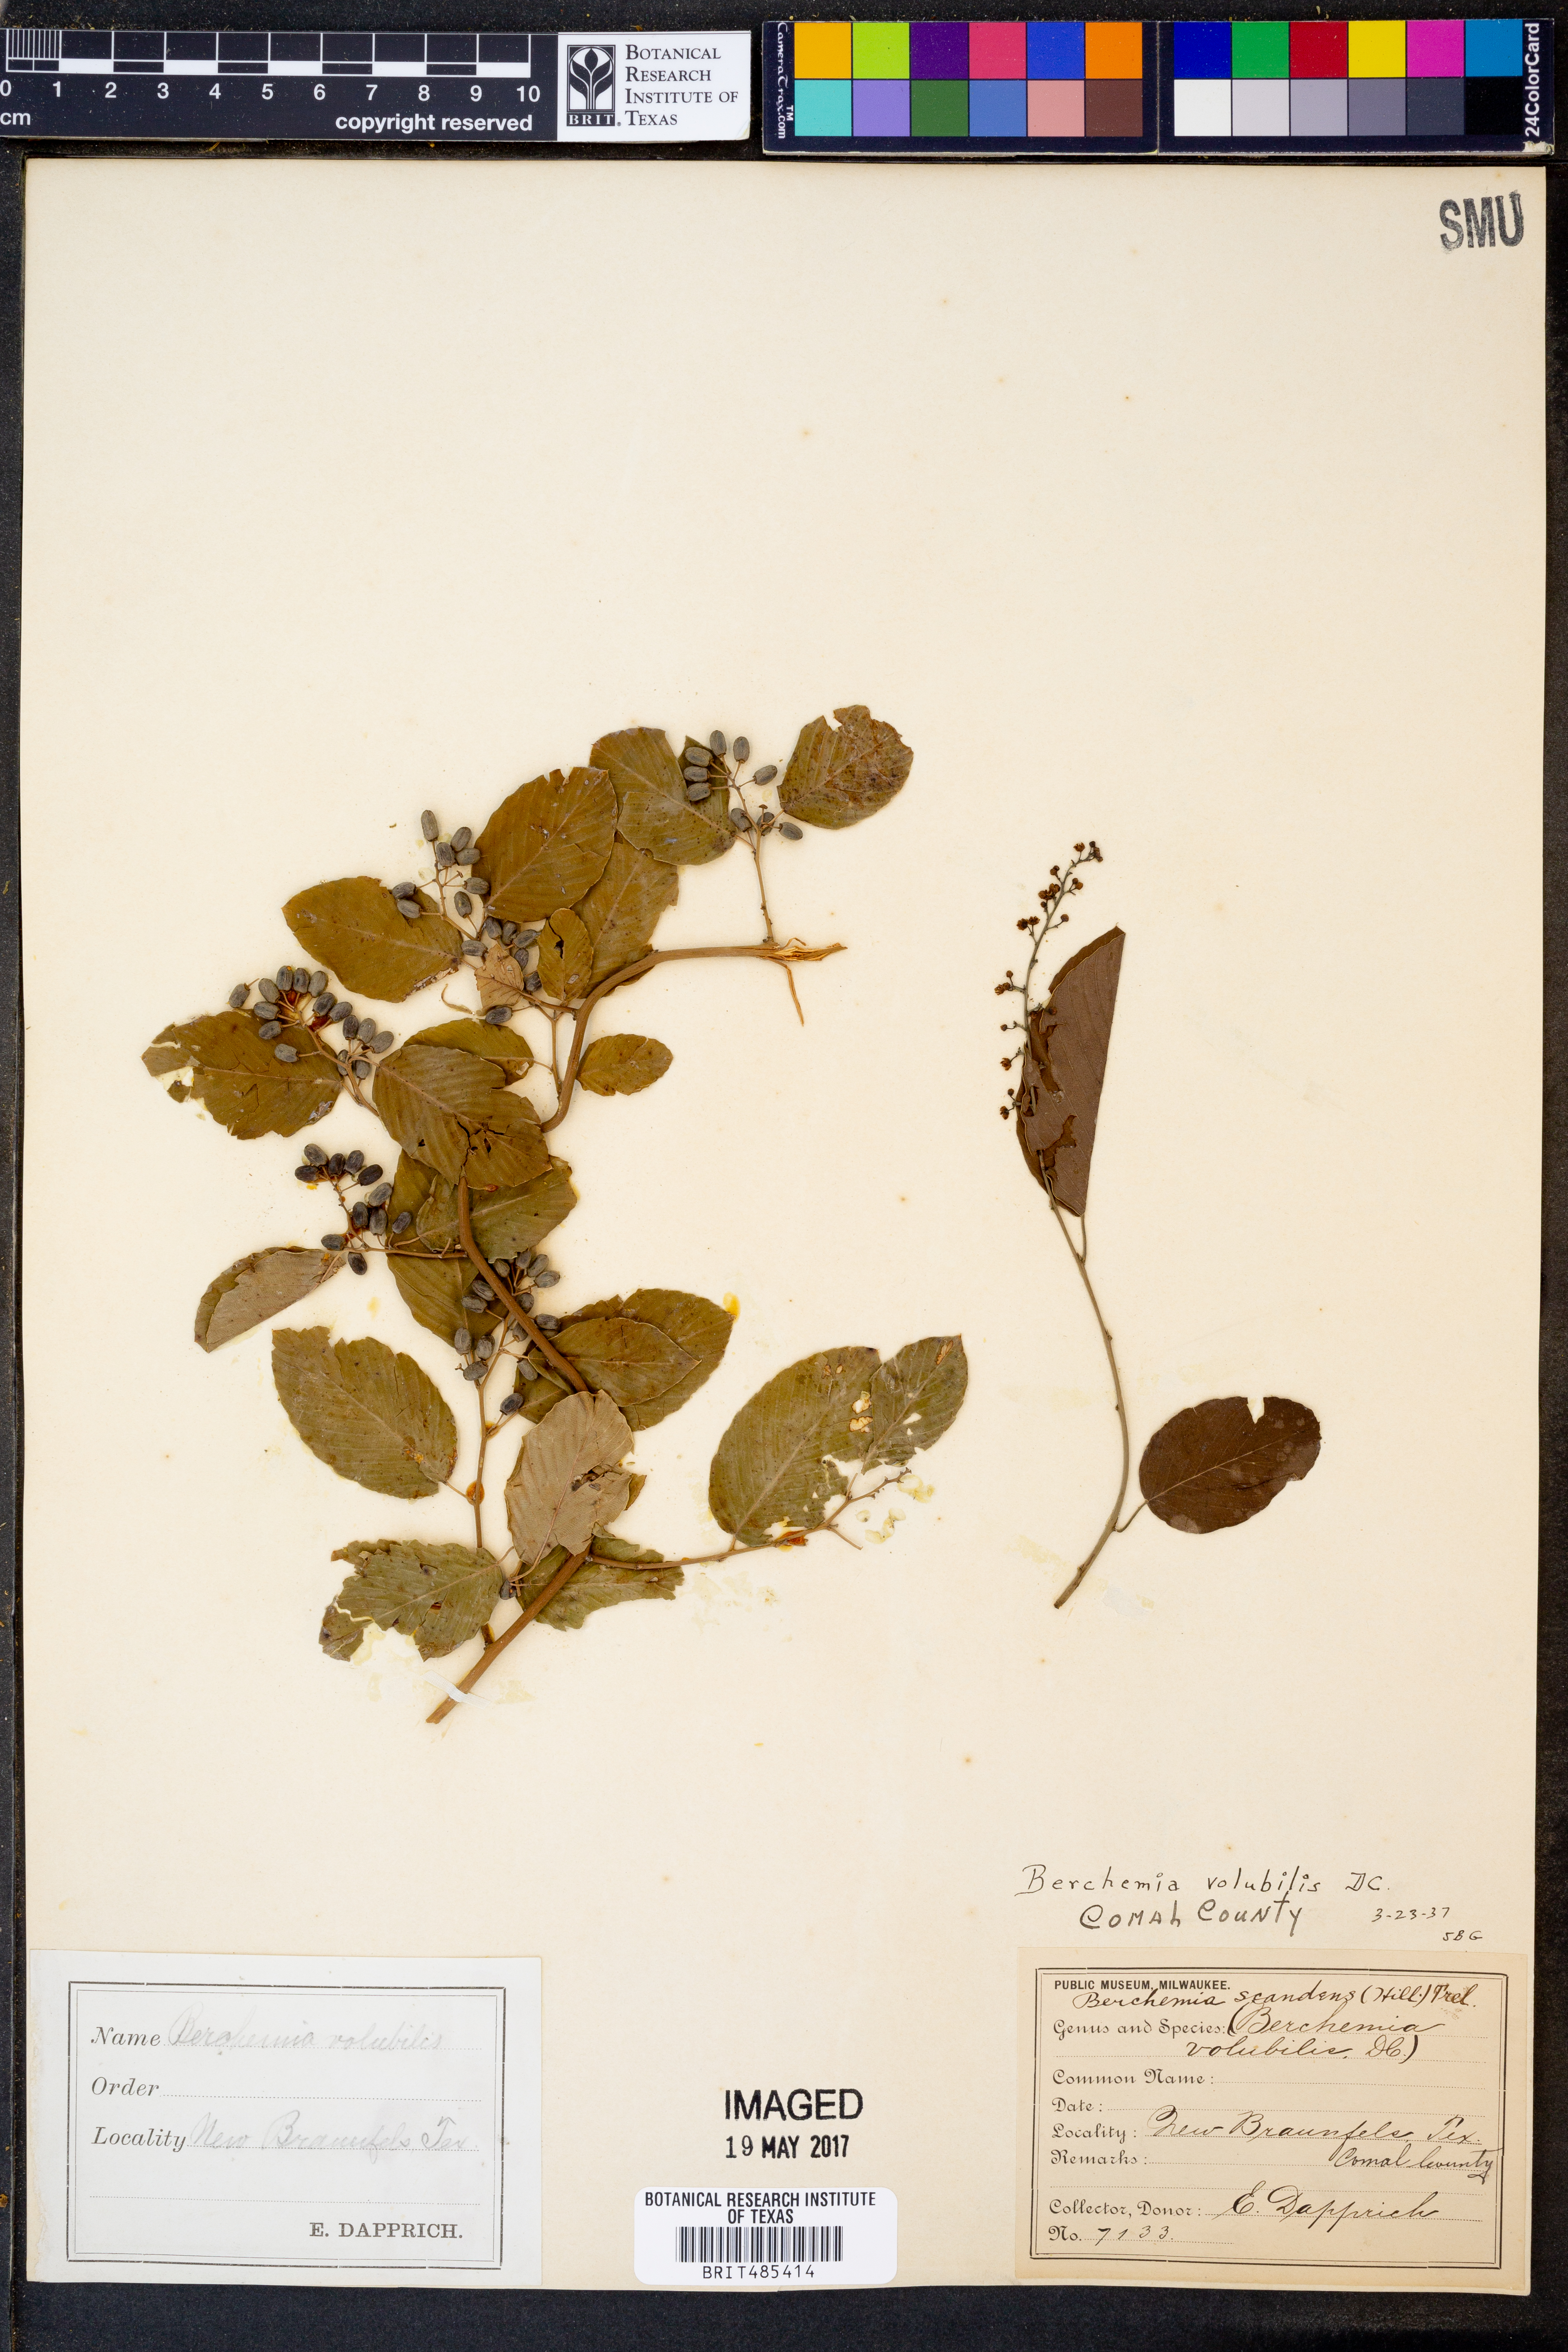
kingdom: Plantae
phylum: Tracheophyta
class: Magnoliopsida
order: Rosales
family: Rhamnaceae
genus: Berchemia
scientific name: Berchemia scandens
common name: Supplejack
